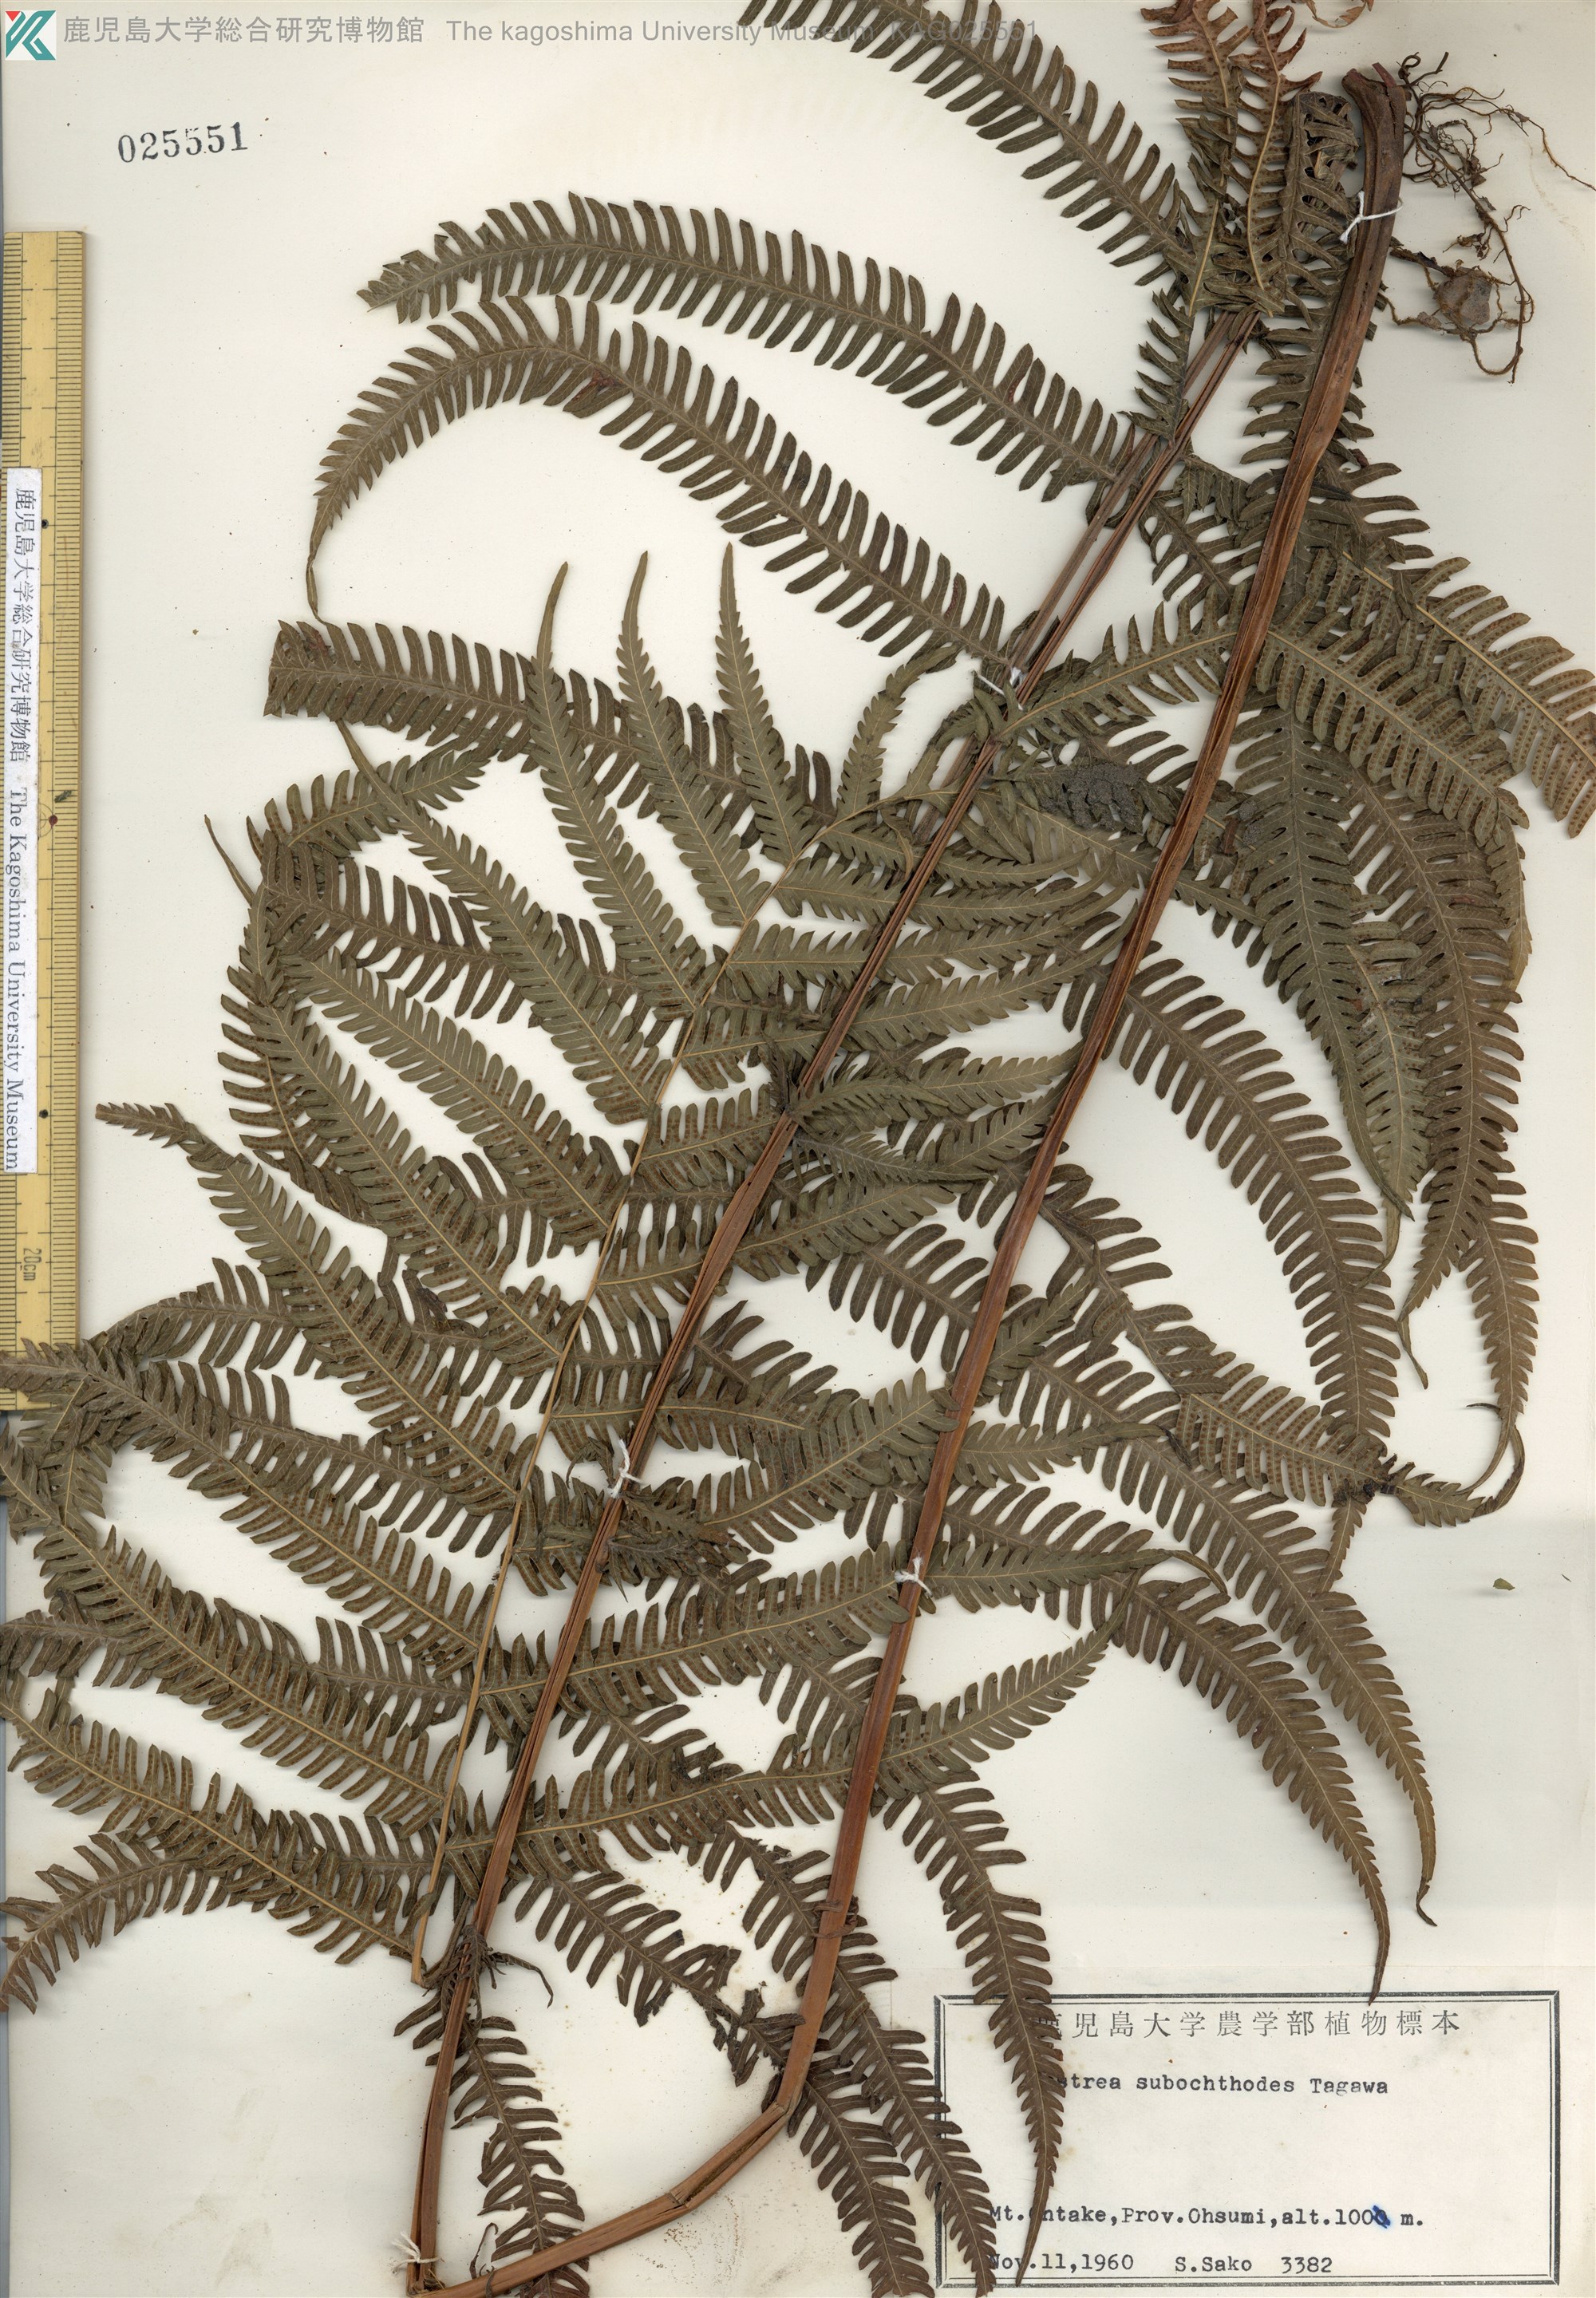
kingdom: Plantae
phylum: Tracheophyta
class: Polypodiopsida
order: Polypodiales
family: Thelypteridaceae
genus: Pseudocyclosorus
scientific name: Pseudocyclosorus esquirolii
